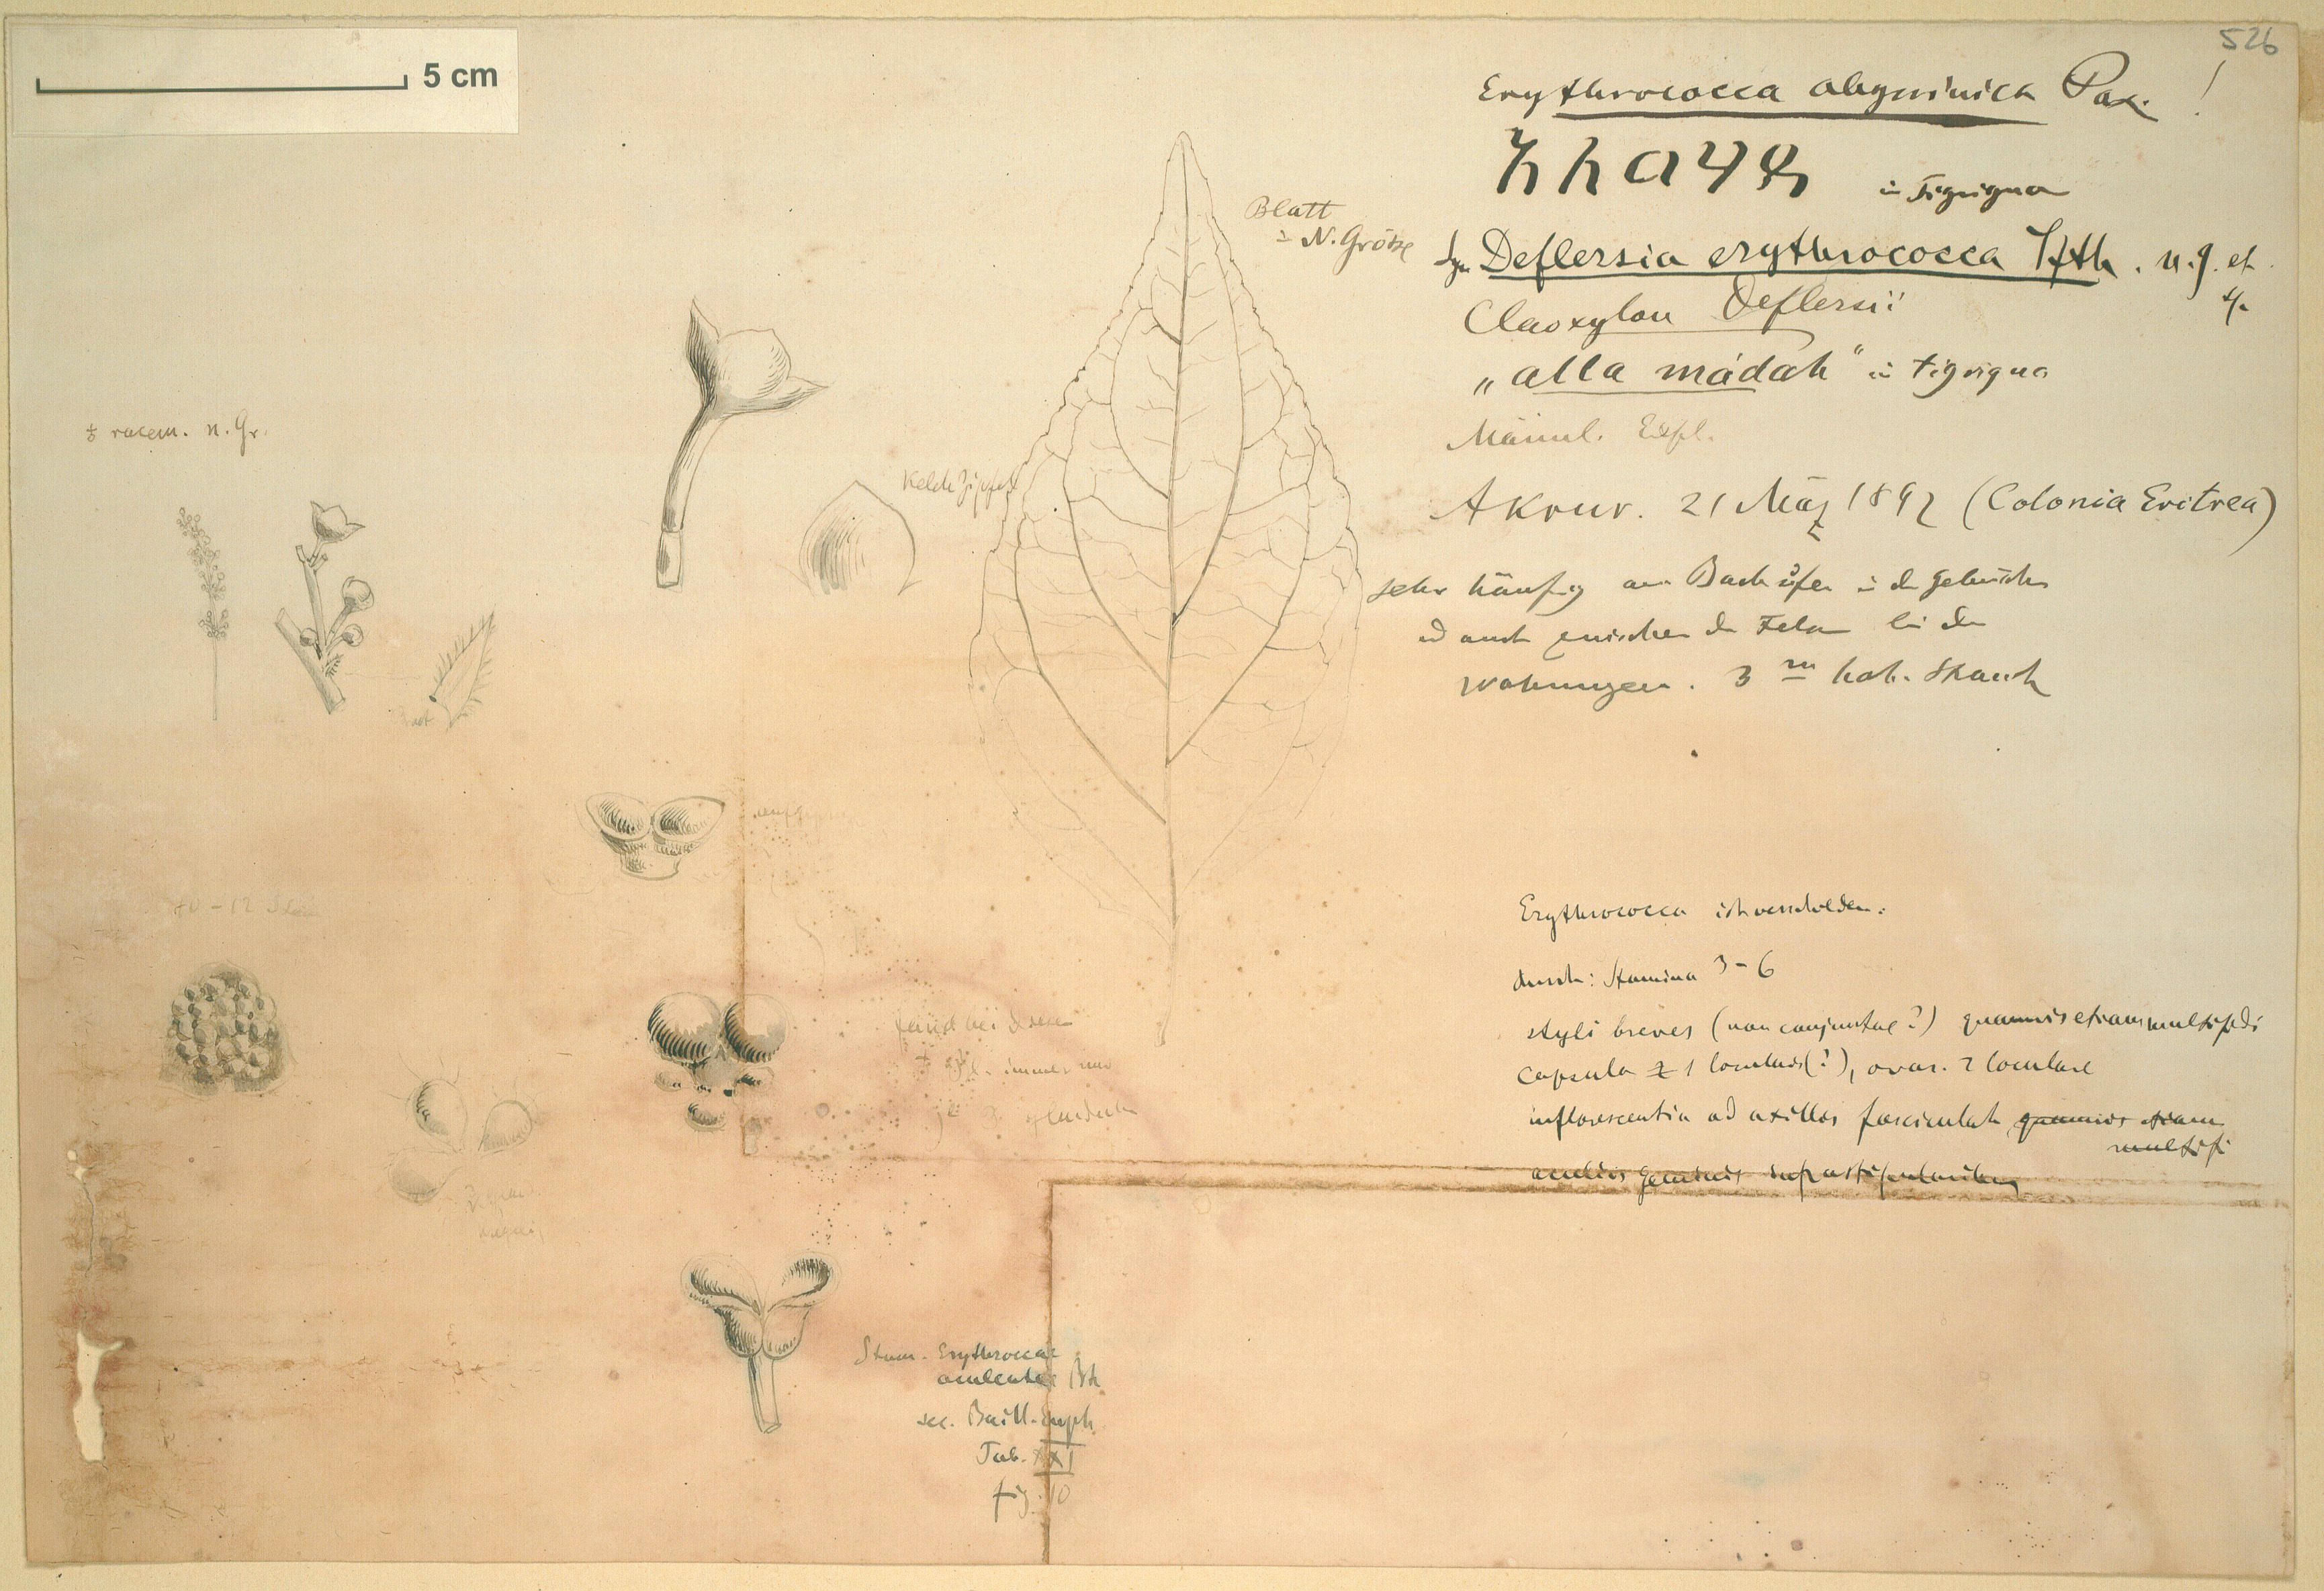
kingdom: Plantae
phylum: Tracheophyta
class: Magnoliopsida
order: Malpighiales
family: Euphorbiaceae
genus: Erythrococca
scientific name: Erythrococca abyssinica
